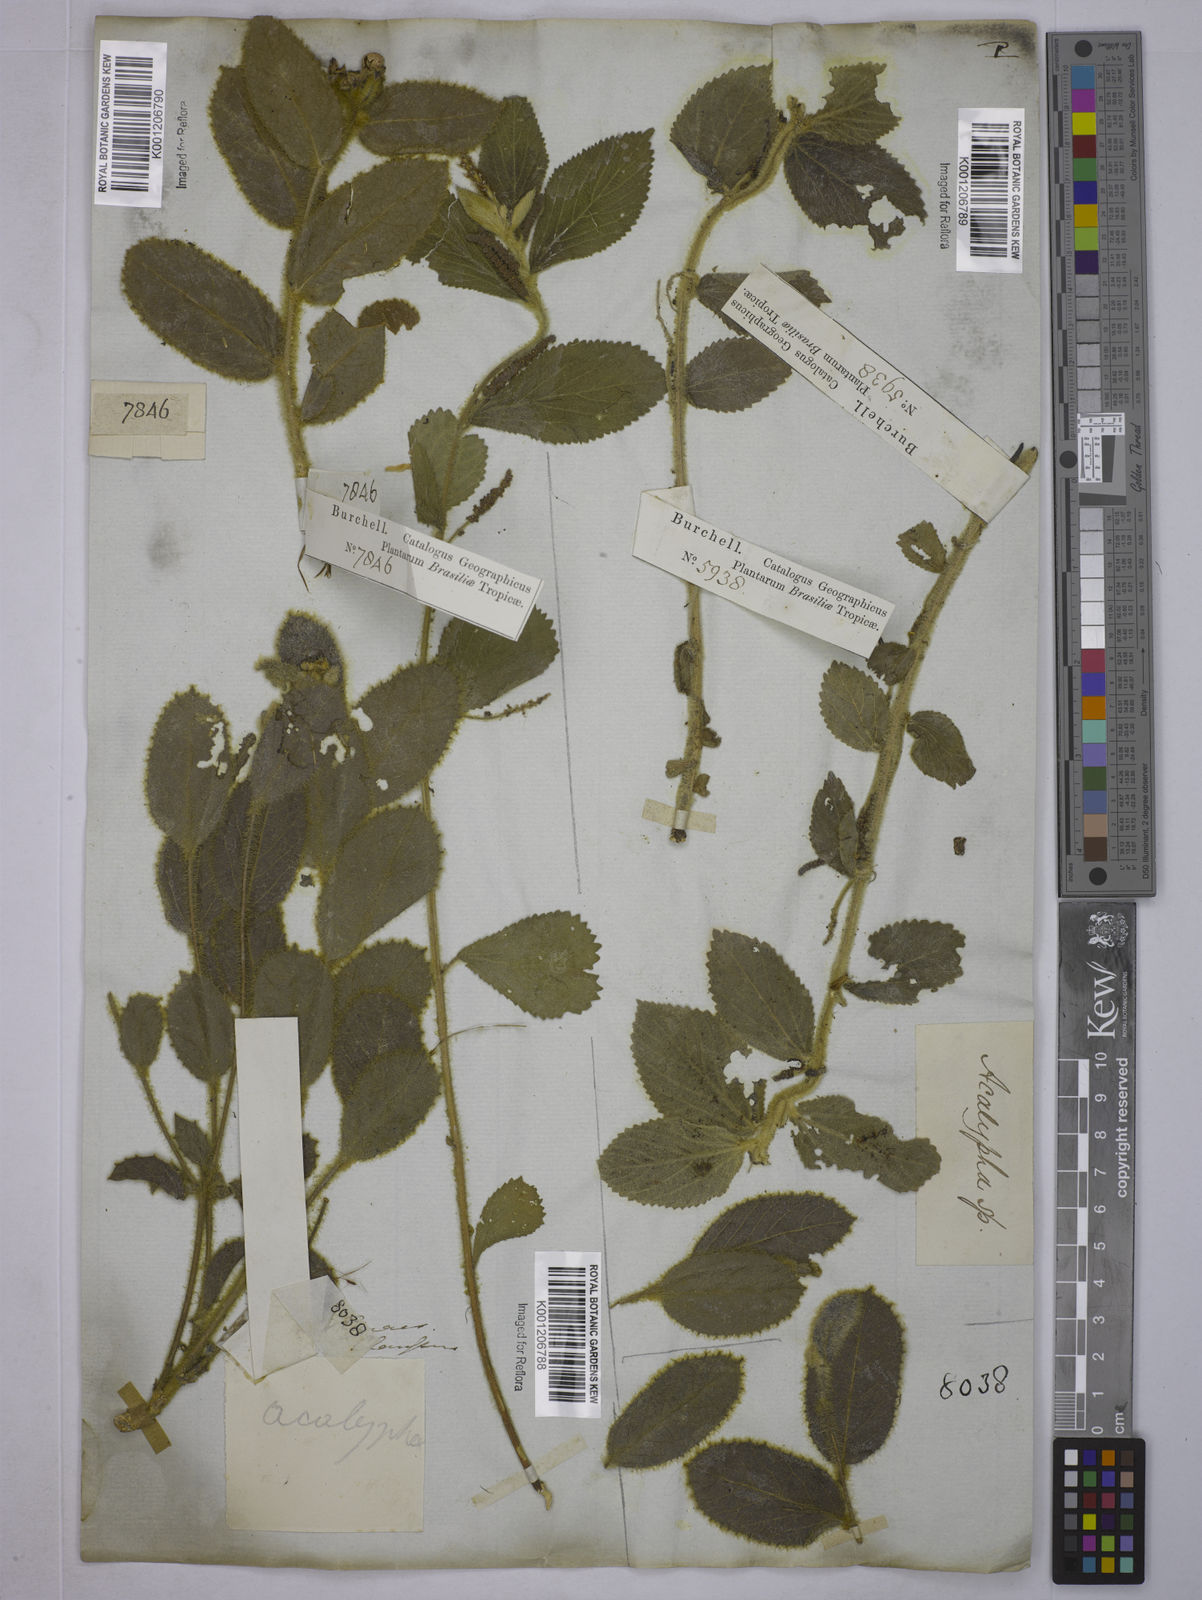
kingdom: Plantae
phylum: Tracheophyta
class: Magnoliopsida
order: Malpighiales
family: Euphorbiaceae
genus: Acalypha
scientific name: Acalypha
